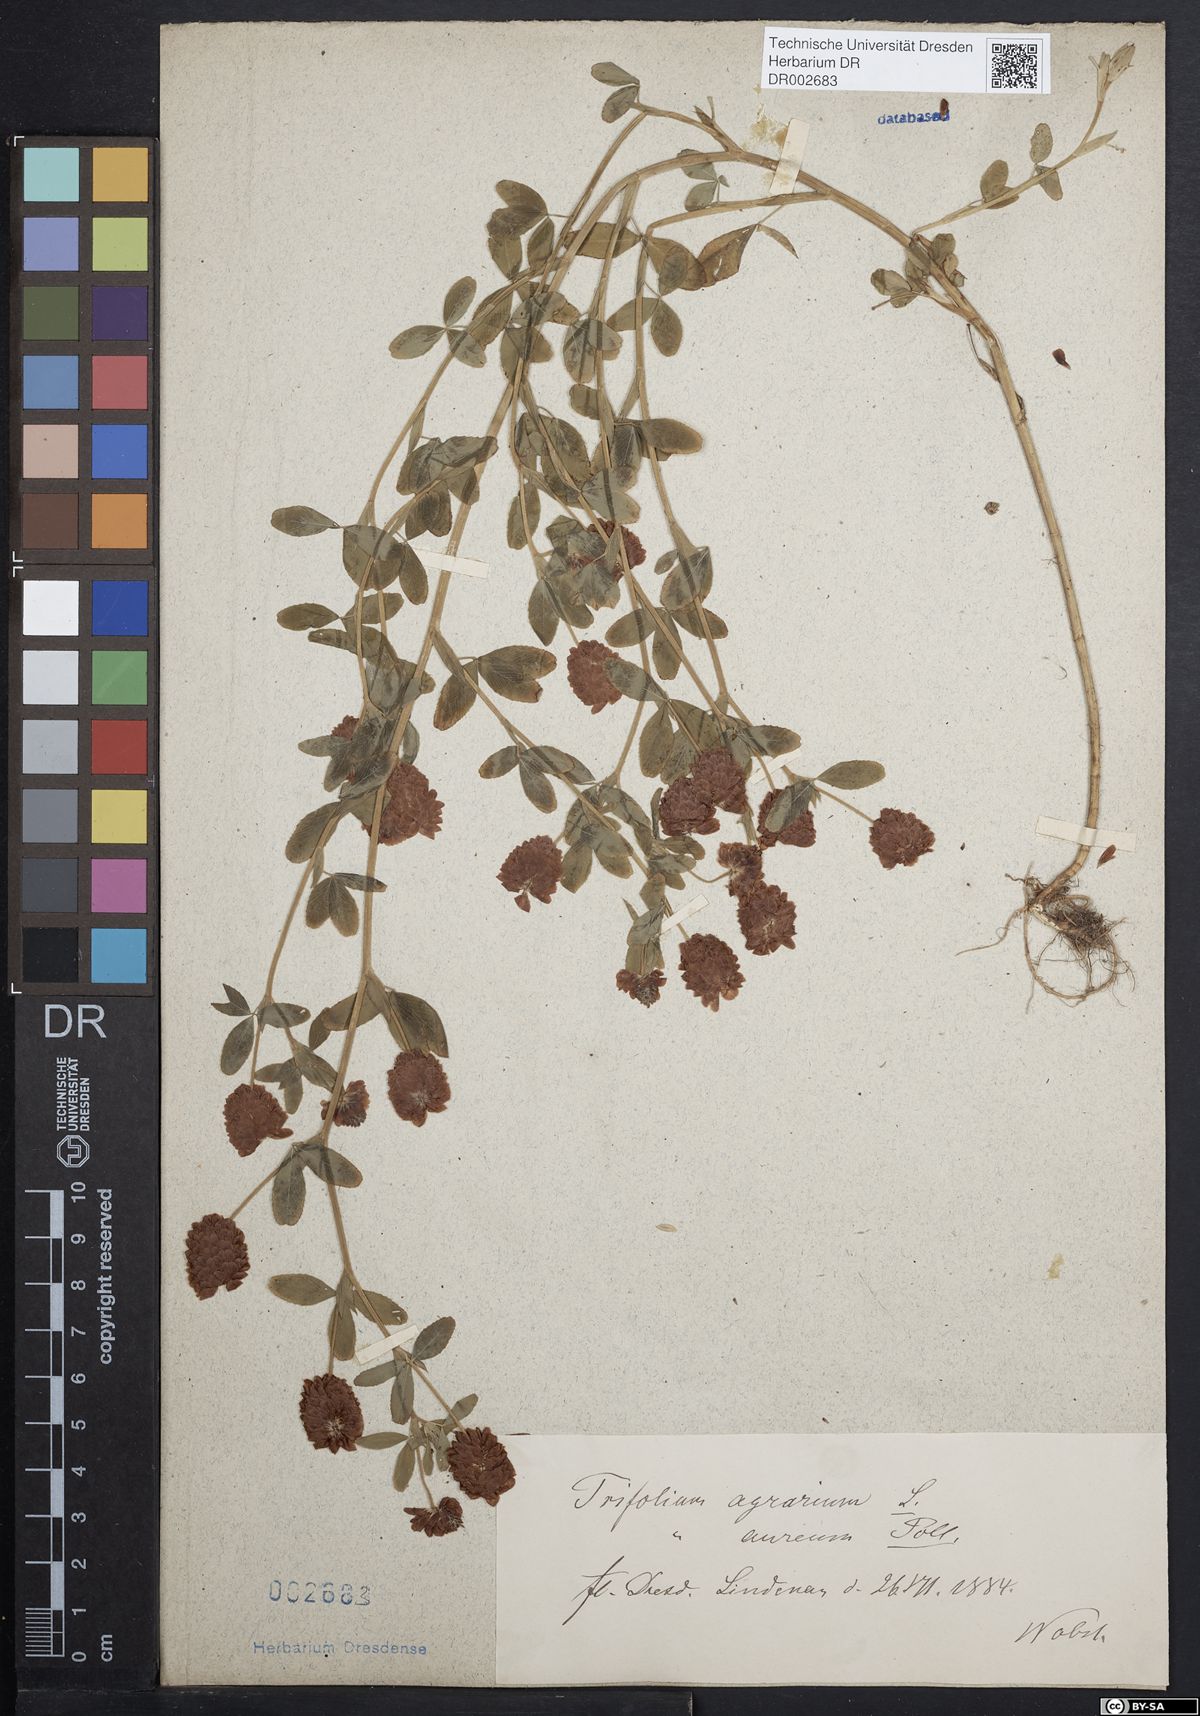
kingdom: Plantae
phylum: Tracheophyta
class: Magnoliopsida
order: Fabales
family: Fabaceae
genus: Trifolium
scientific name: Trifolium aureum
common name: Golden clover
